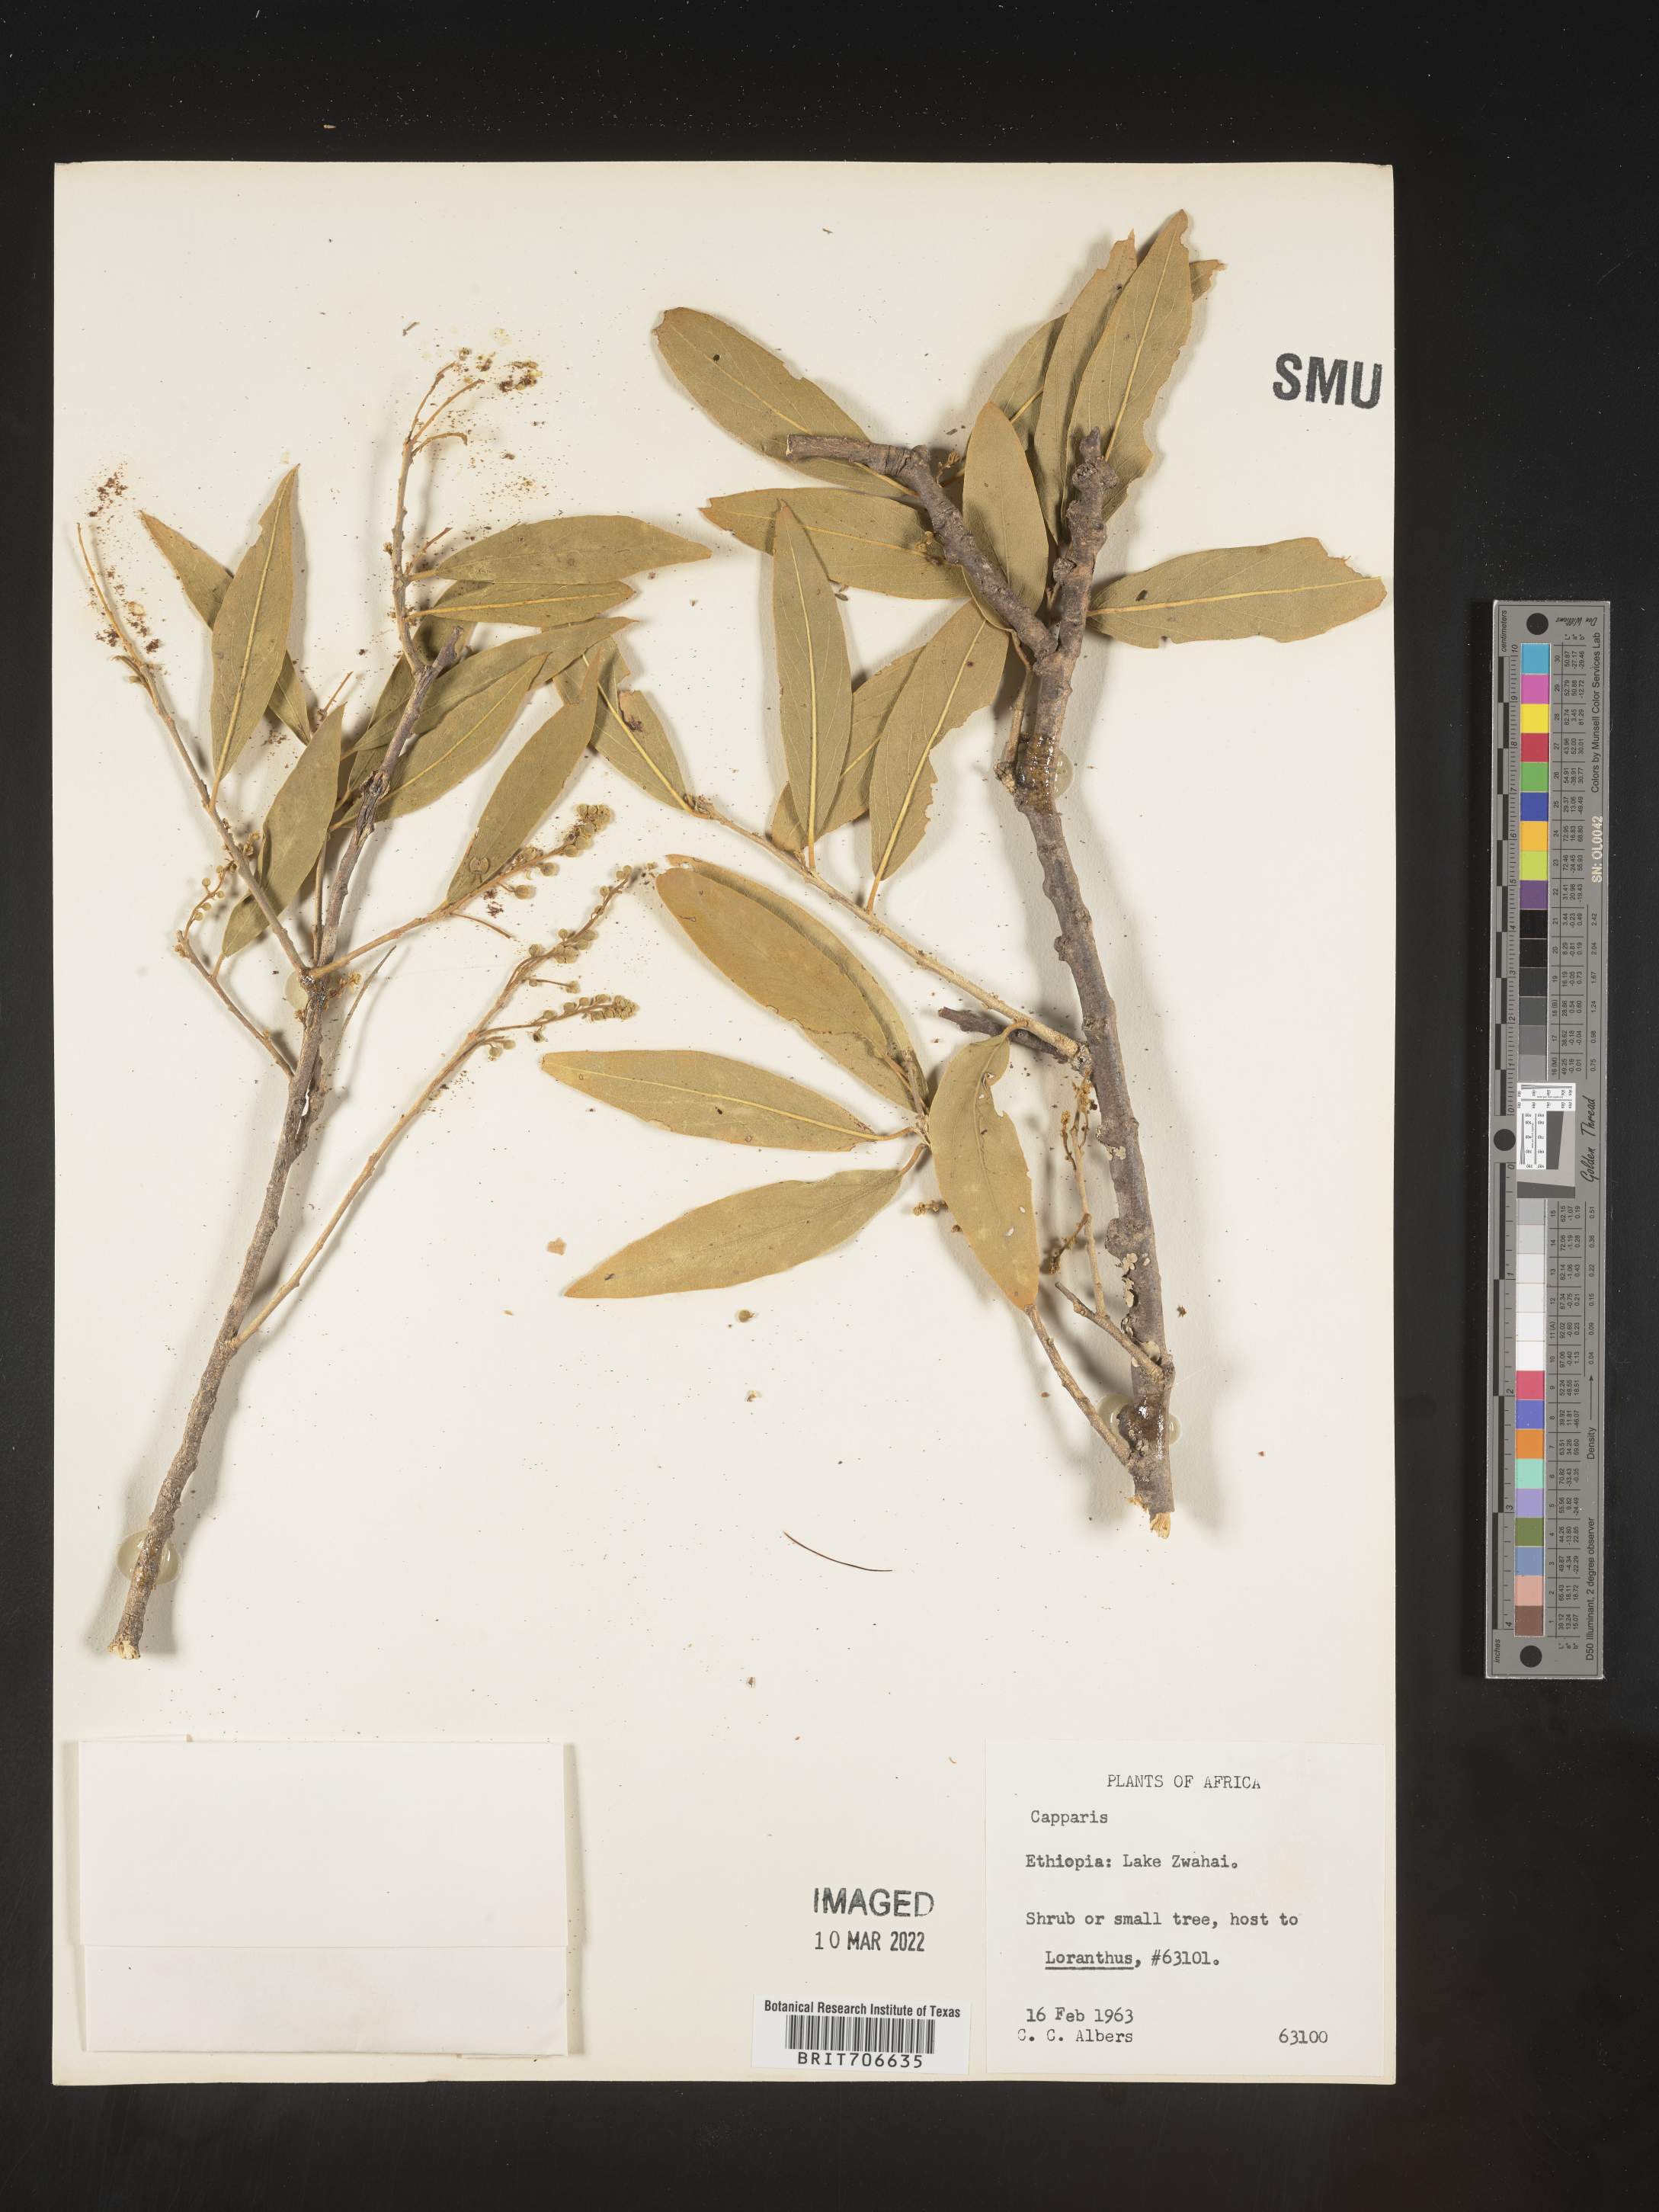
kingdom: Plantae
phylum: Tracheophyta
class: Magnoliopsida
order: Brassicales
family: Capparaceae
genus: Capparis
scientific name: Capparis
